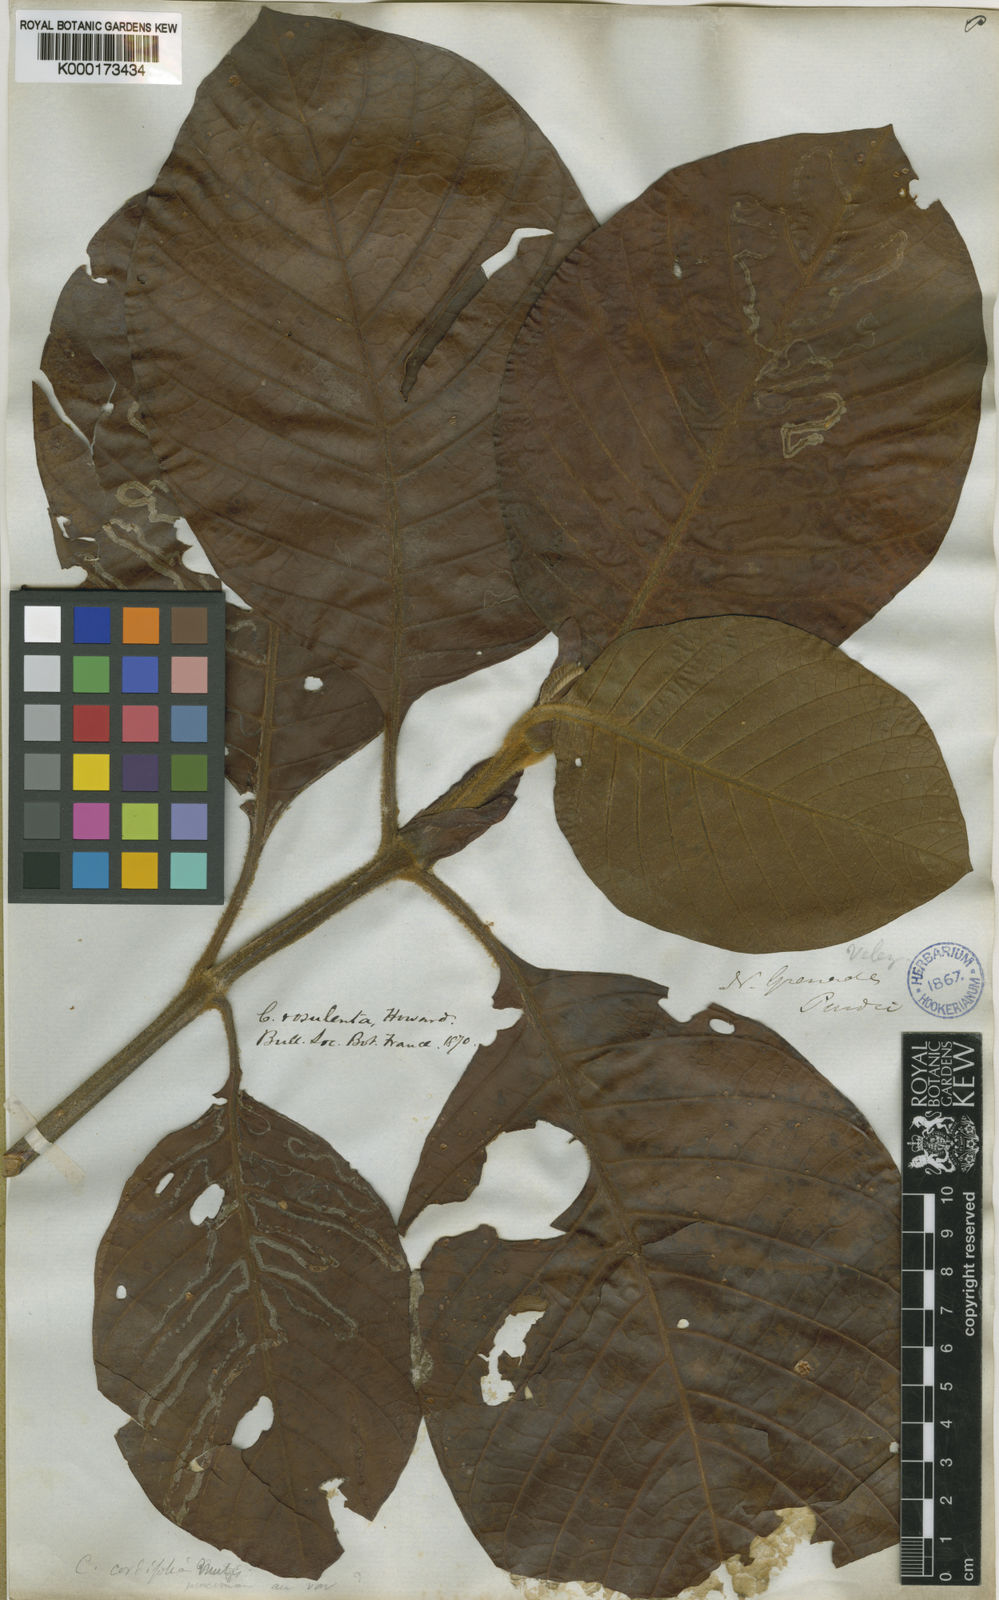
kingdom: Plantae
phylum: Tracheophyta
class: Magnoliopsida
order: Gentianales
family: Rubiaceae
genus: Cinchona
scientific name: Cinchona pubescens
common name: Quinine
